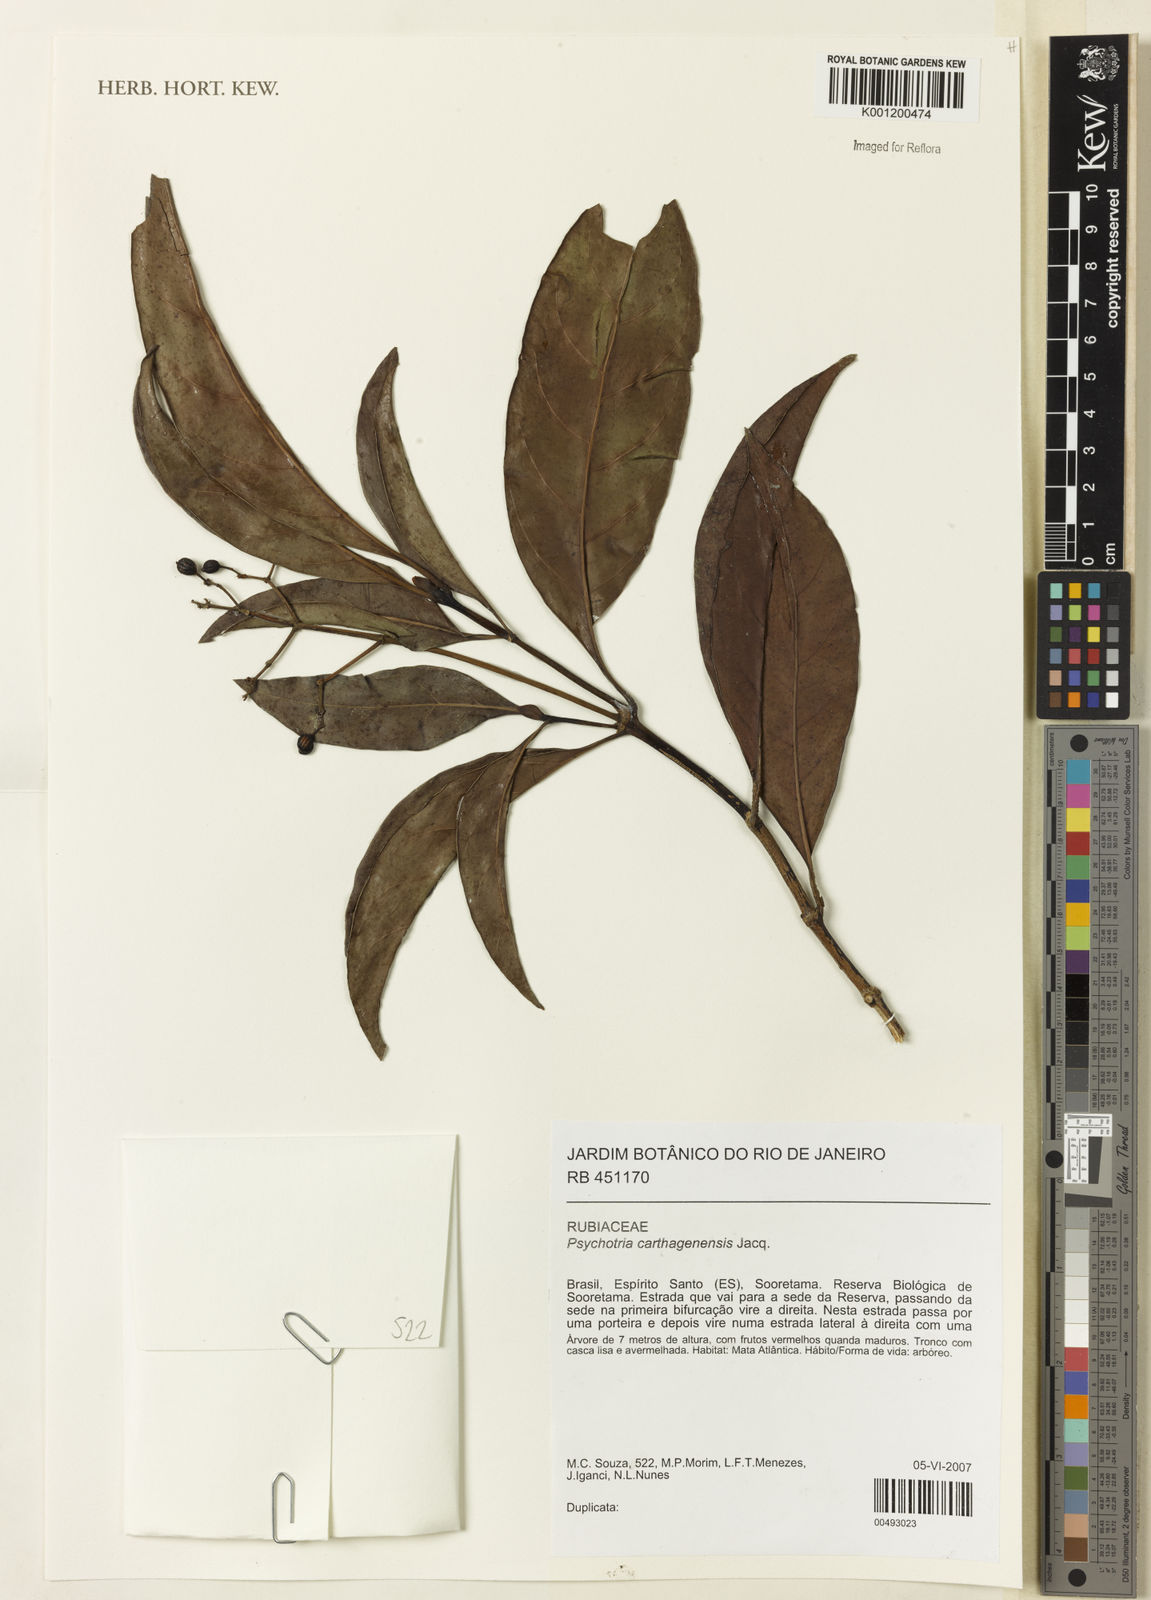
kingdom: Plantae
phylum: Tracheophyta
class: Magnoliopsida
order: Gentianales
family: Rubiaceae
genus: Psychotria
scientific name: Psychotria carthagenensis
